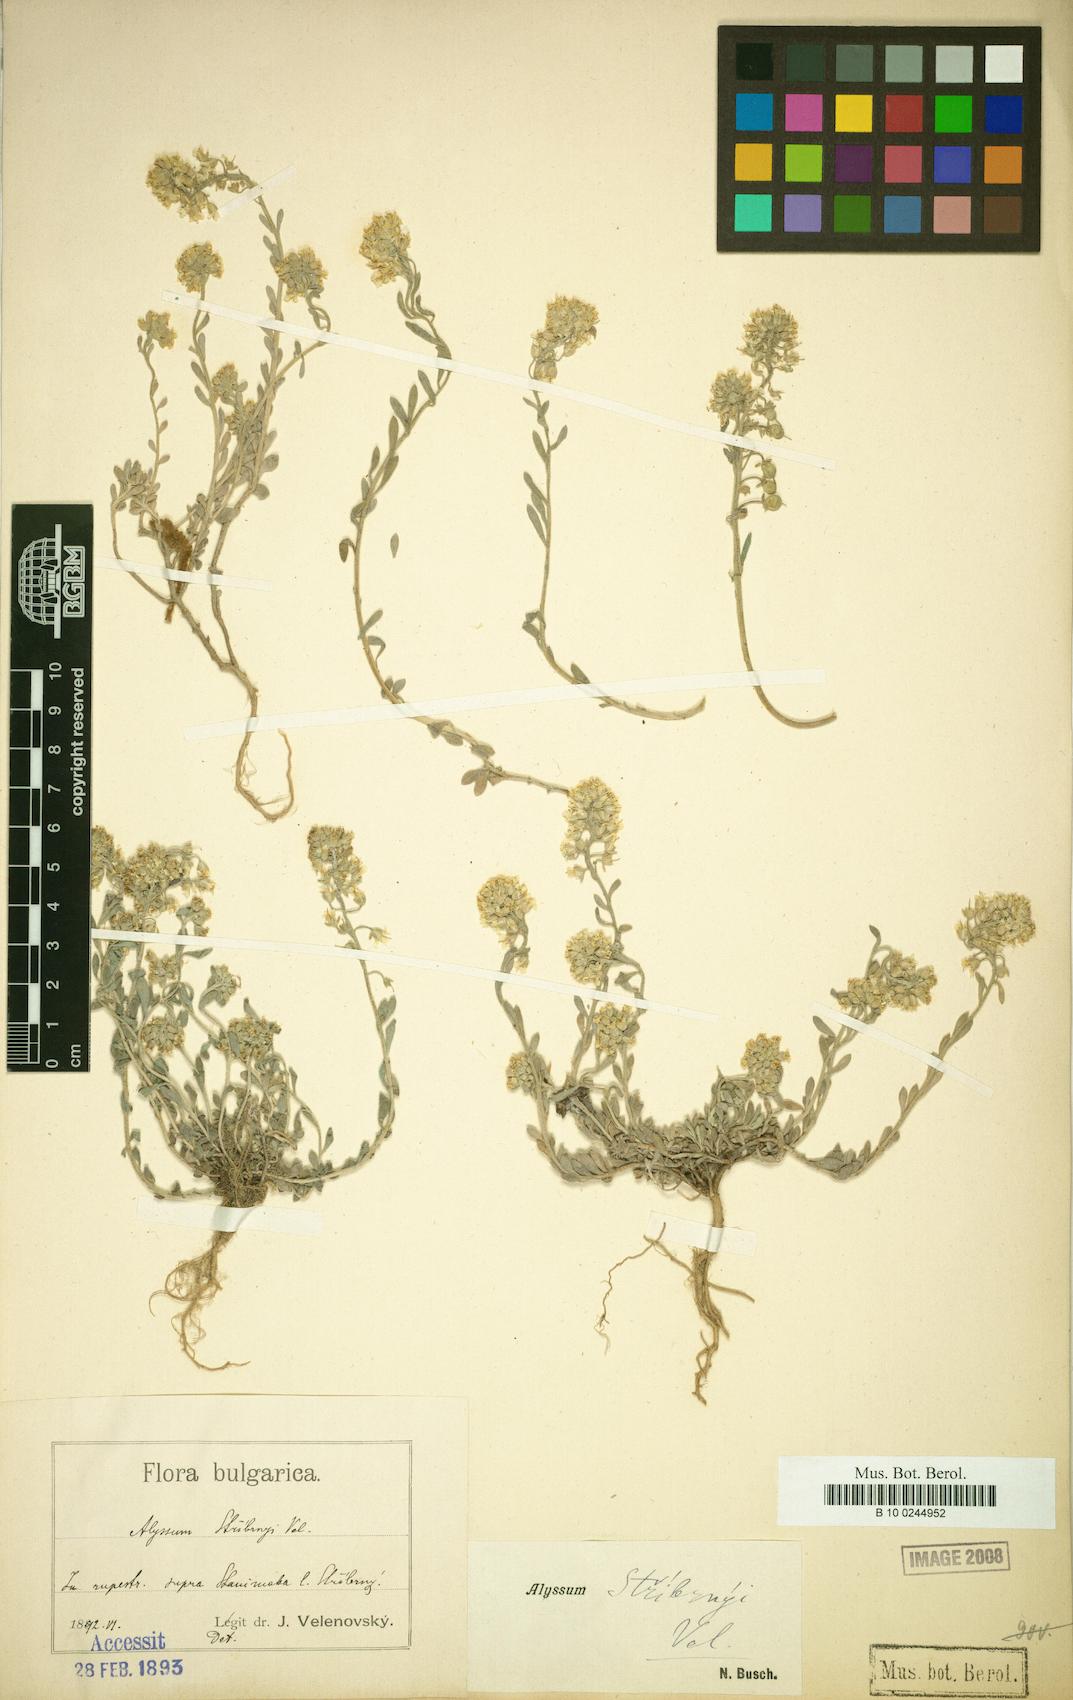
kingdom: Plantae
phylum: Tracheophyta
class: Magnoliopsida
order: Brassicales
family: Brassicaceae
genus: Alyssum
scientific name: Alyssum montanum
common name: Mountain alison
